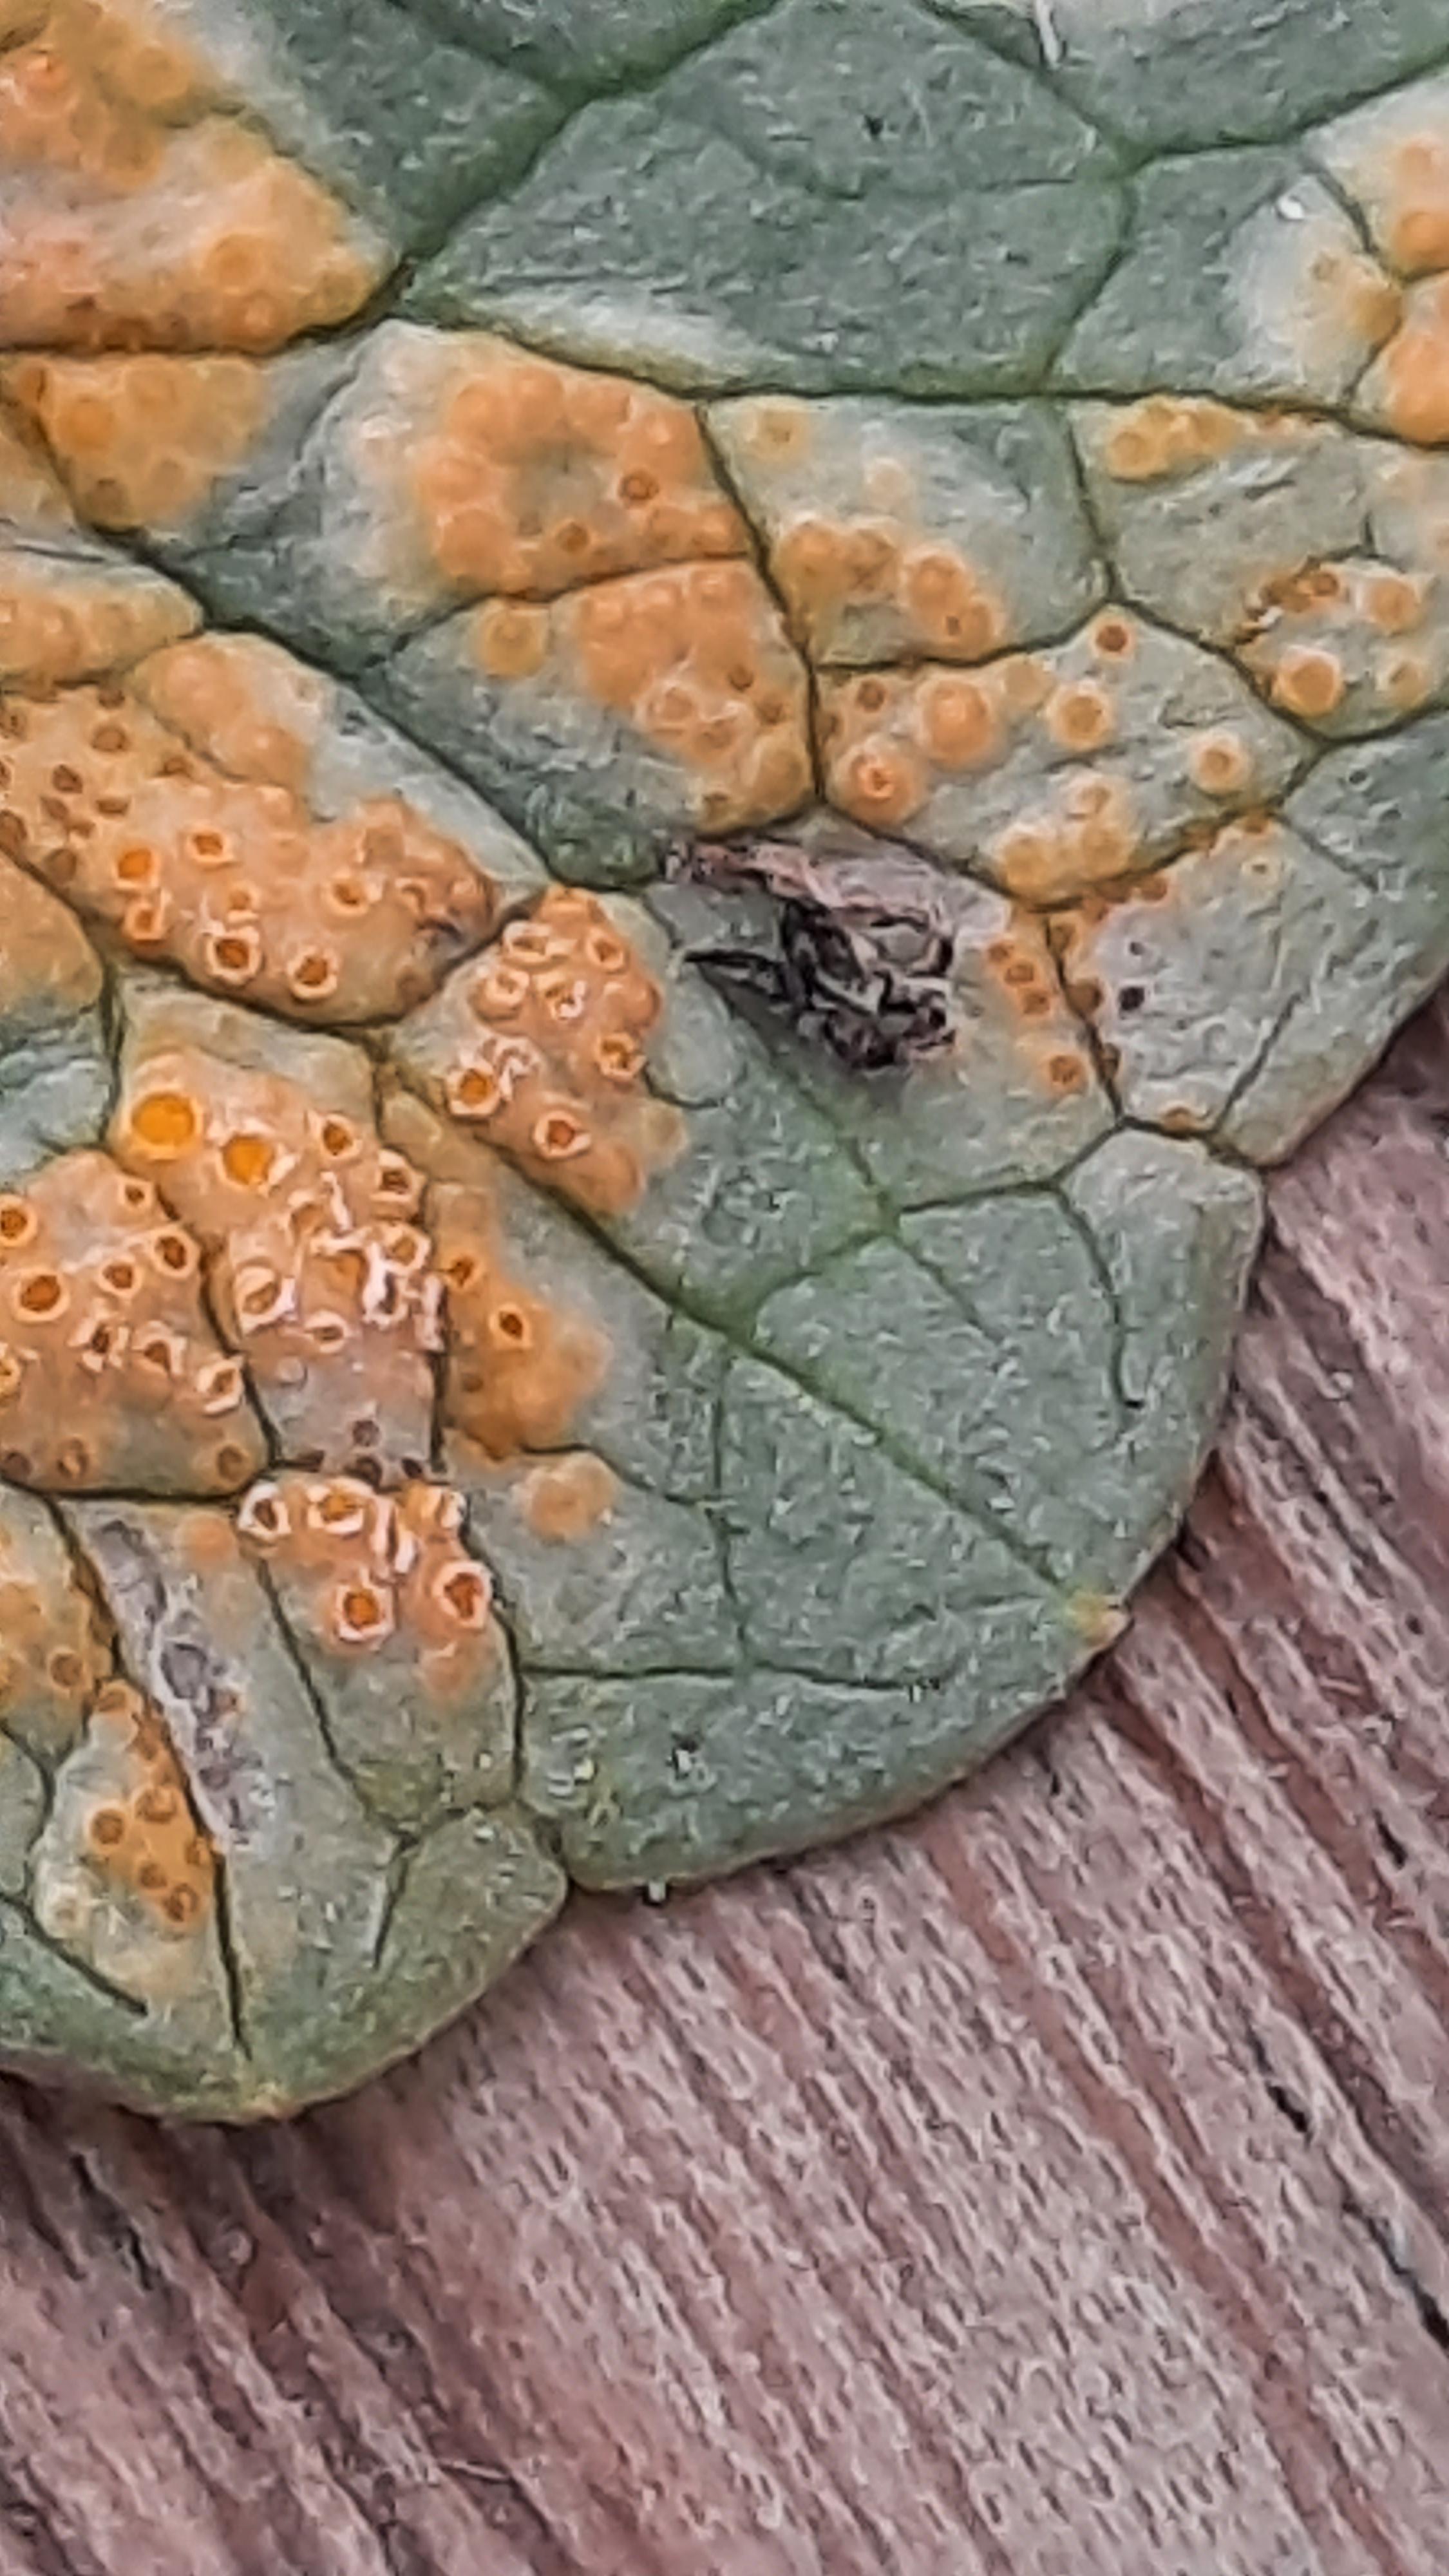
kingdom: Fungi
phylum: Basidiomycota
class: Pucciniomycetes
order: Pucciniales
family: Pucciniaceae
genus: Uromyces
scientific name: Uromyces dactylidis
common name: ranunkel-encellerust
